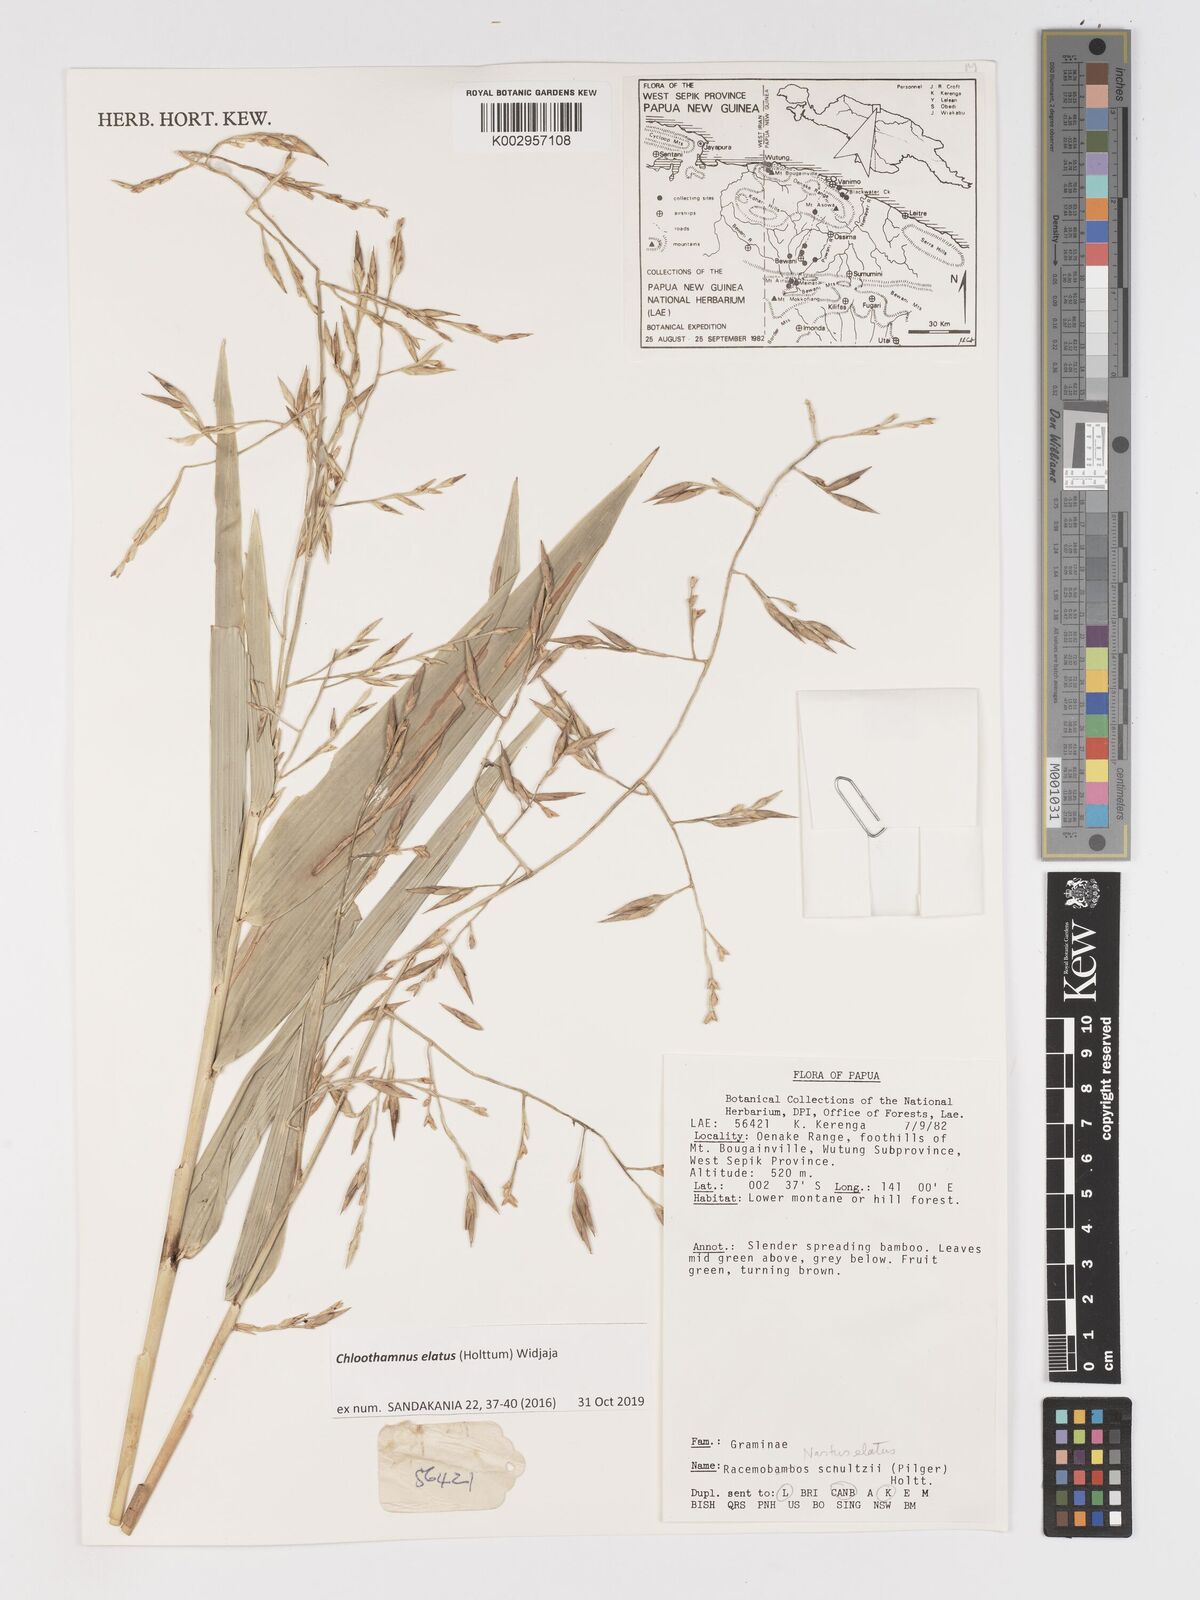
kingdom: Plantae
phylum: Tracheophyta
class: Liliopsida
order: Poales
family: Poaceae
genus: Chloothamnus
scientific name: Chloothamnus
